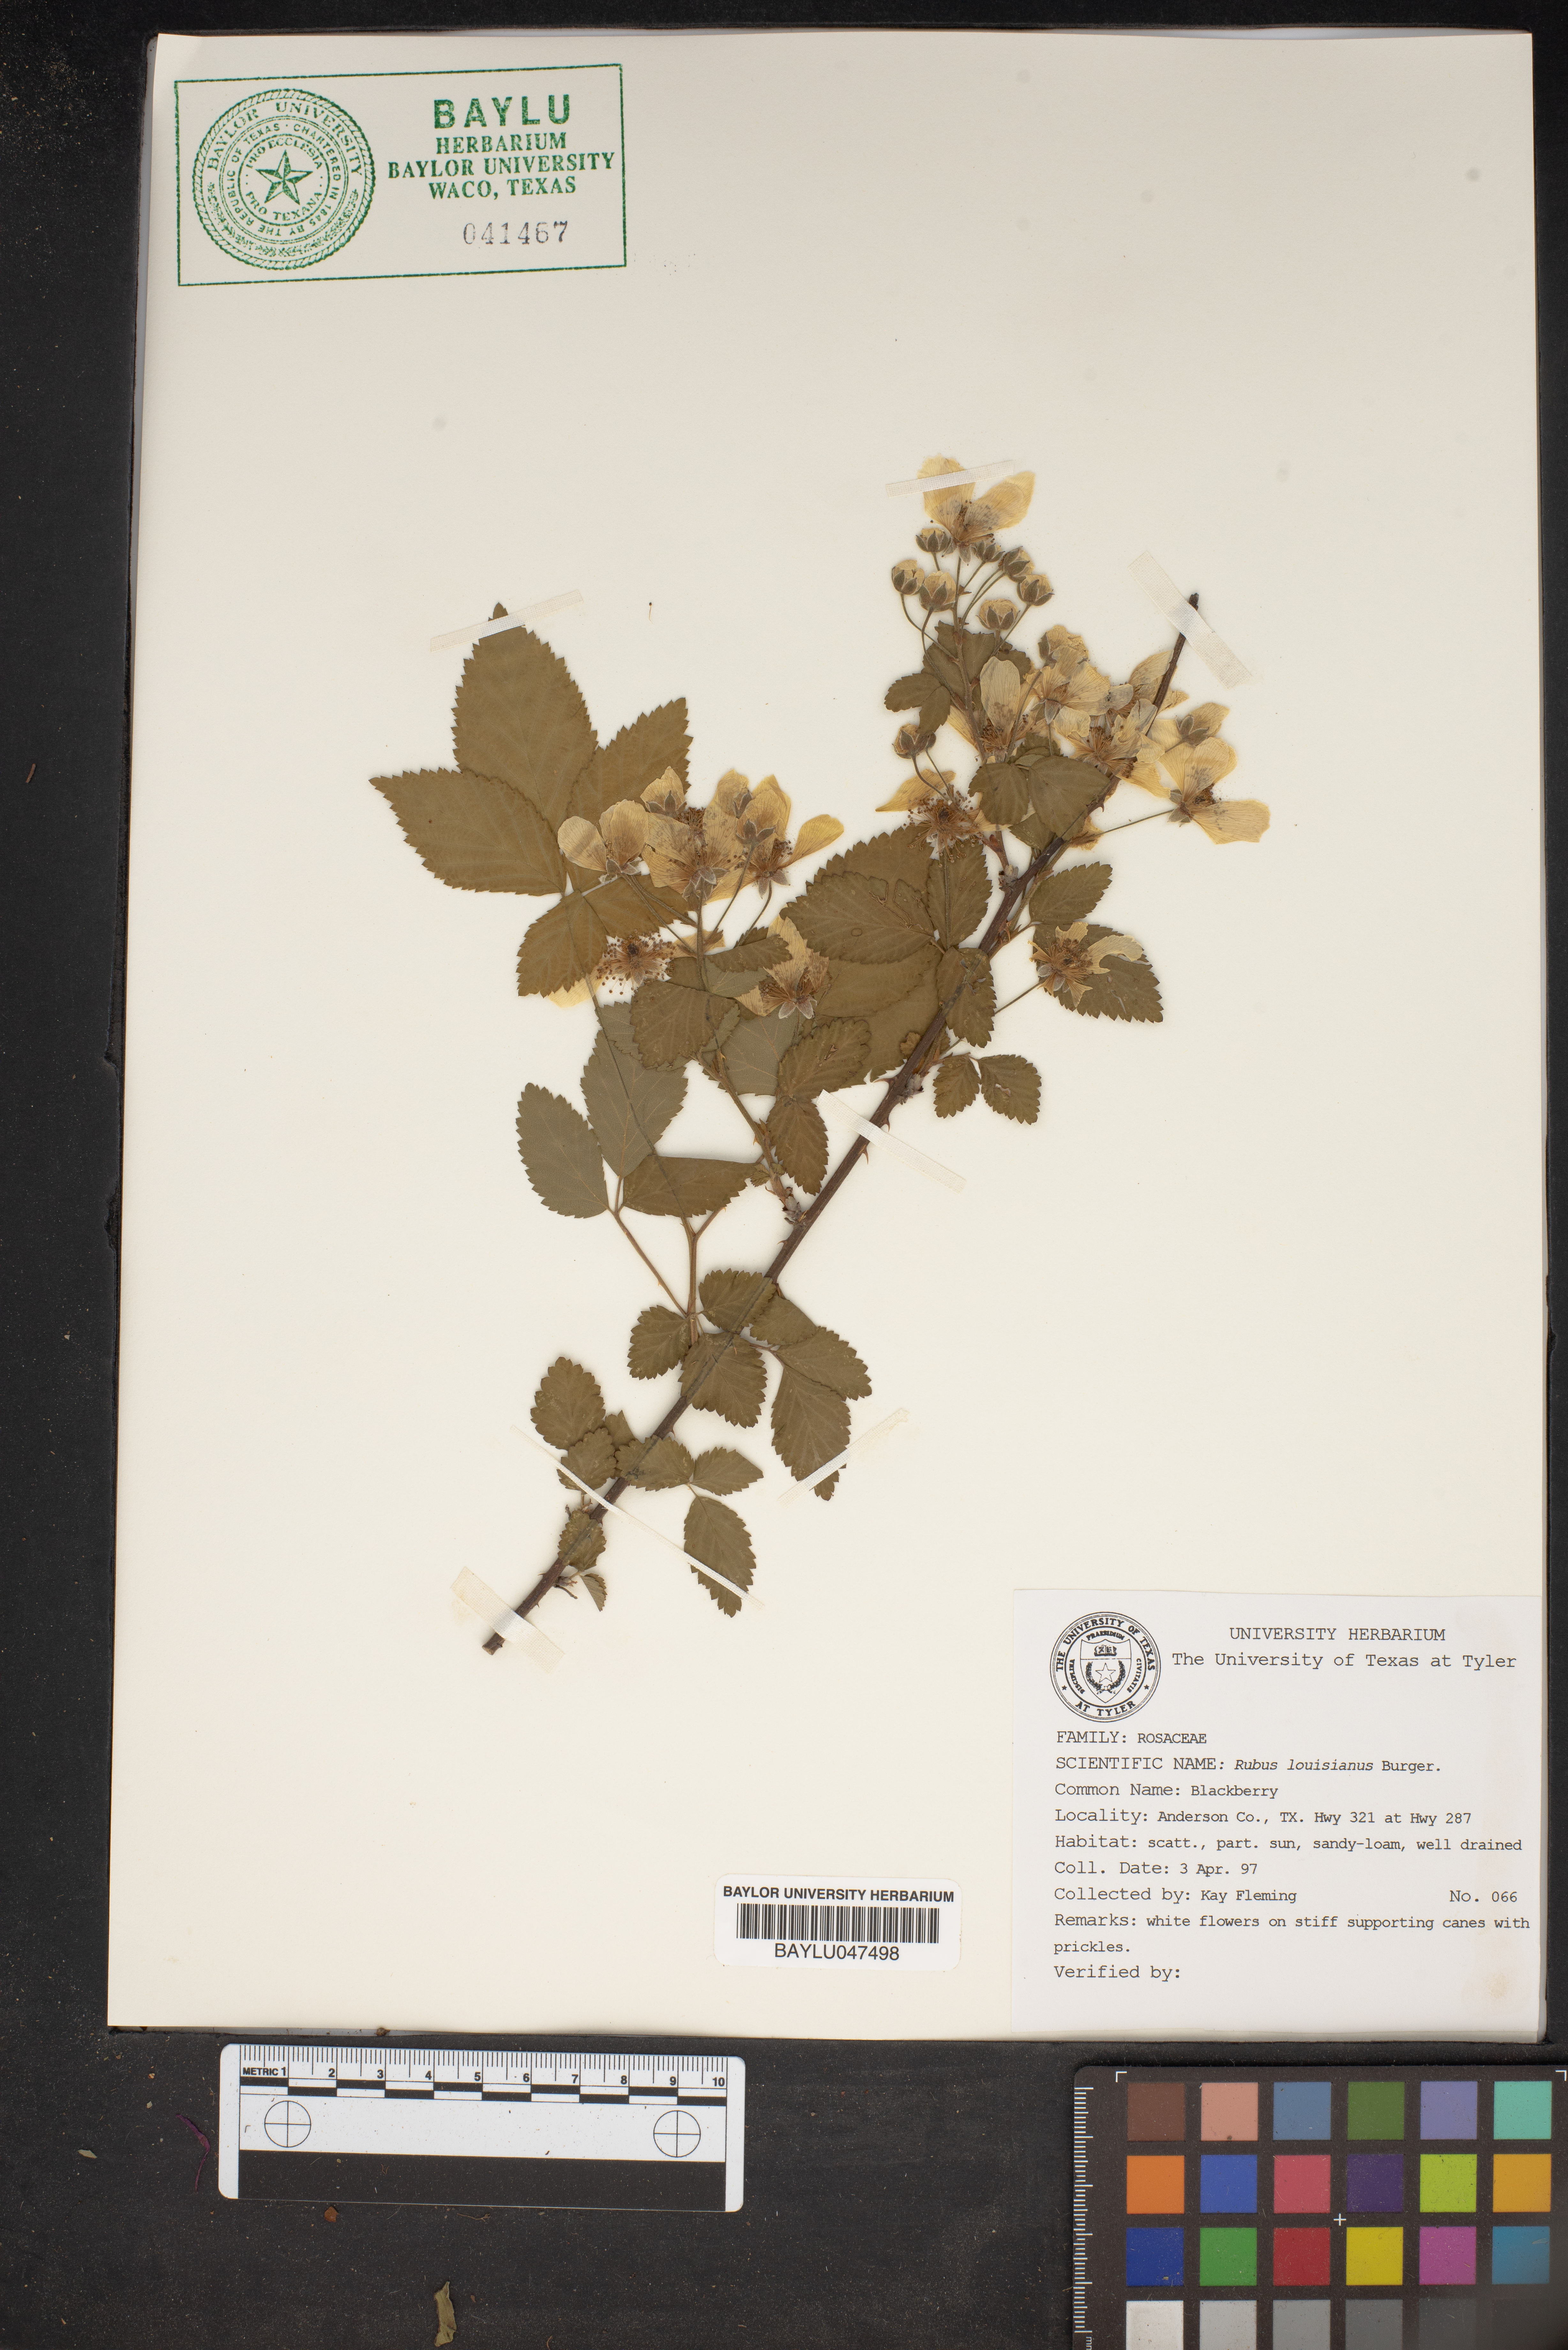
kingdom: Plantae
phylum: Tracheophyta
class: Magnoliopsida
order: Rosales
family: Rosaceae
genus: Rubus
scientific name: Rubus argutus
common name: Sawtooth blackberry
